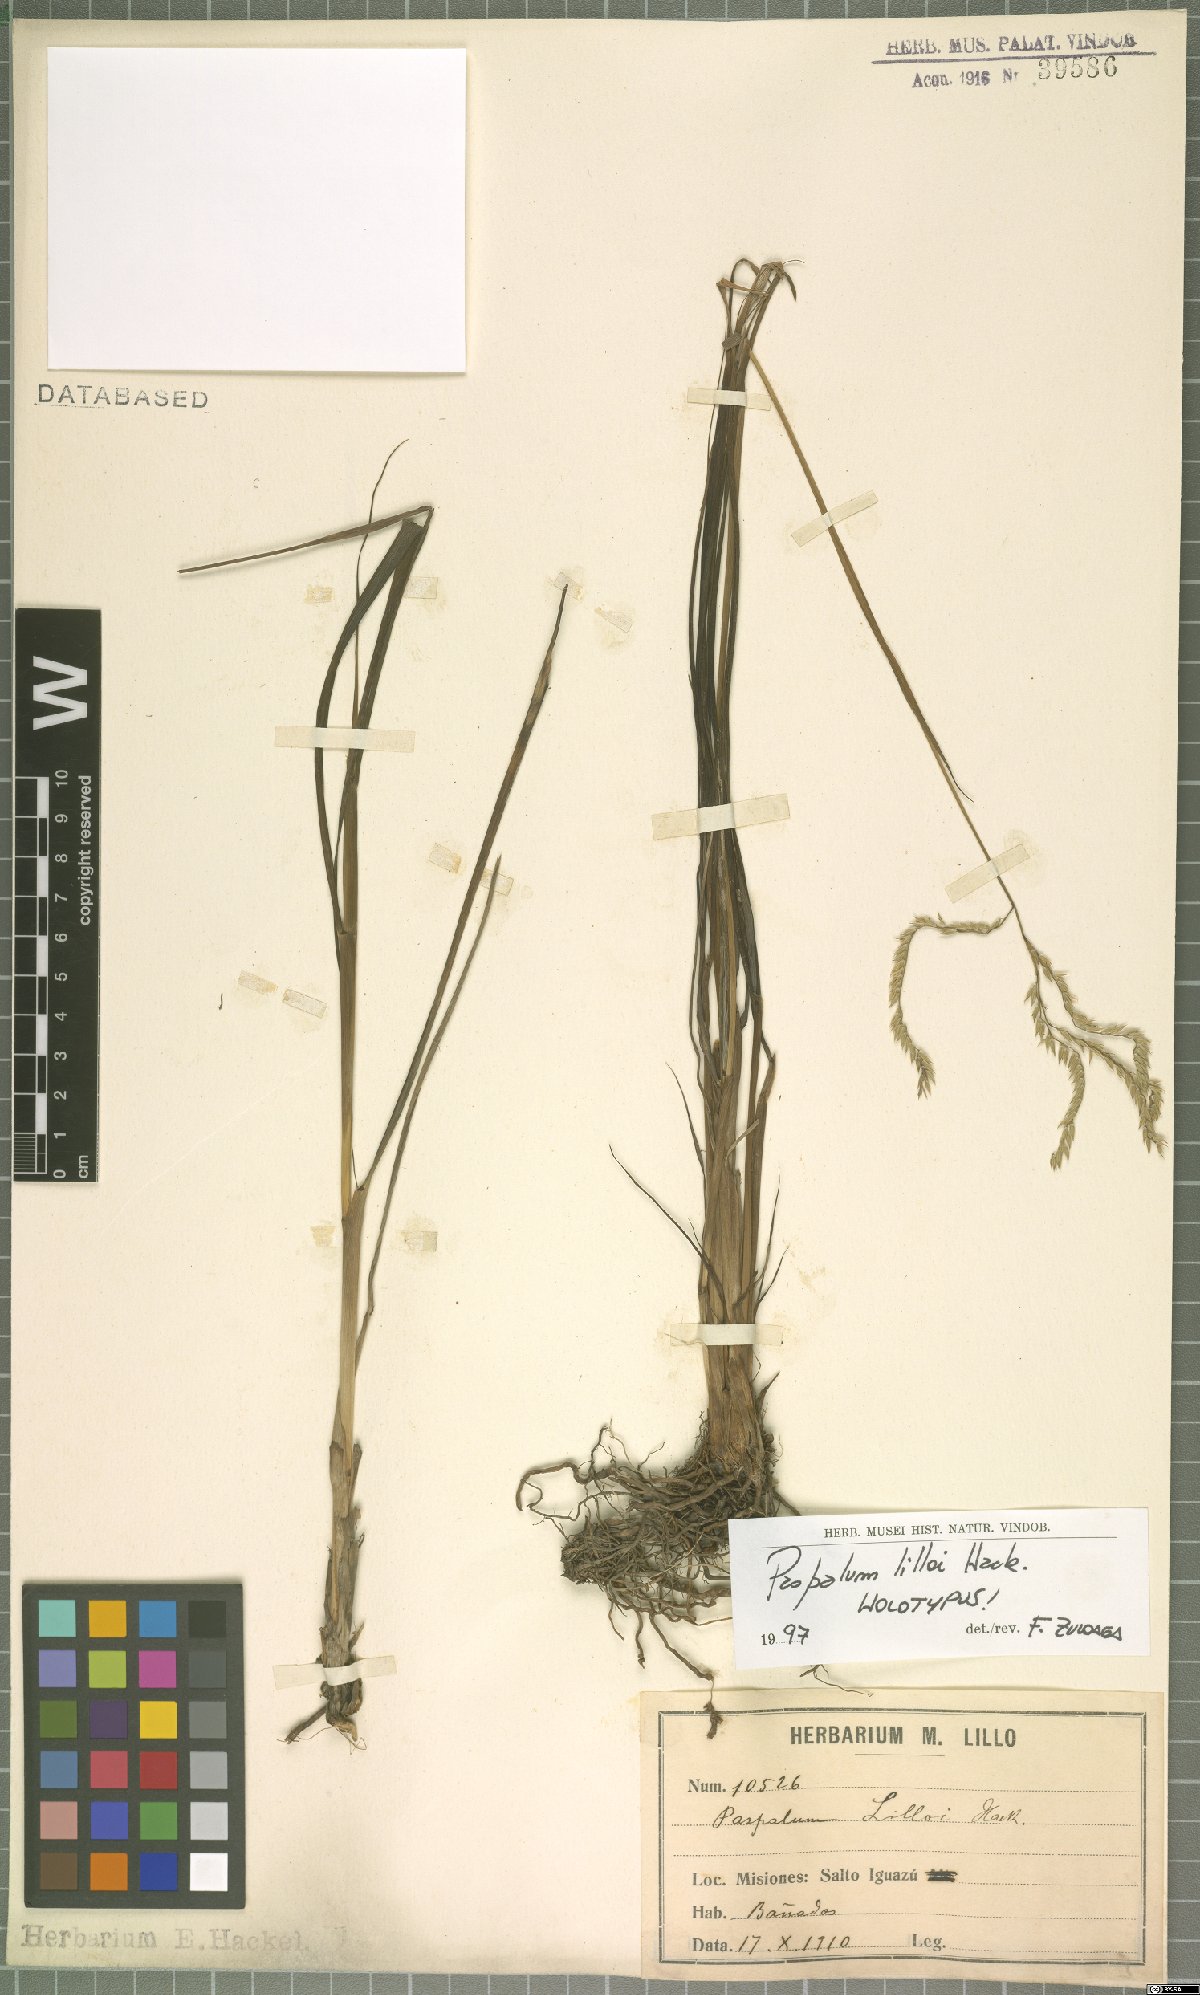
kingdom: Plantae
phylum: Tracheophyta
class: Liliopsida
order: Poales
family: Poaceae
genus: Paspalum
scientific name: Paspalum lilloi
